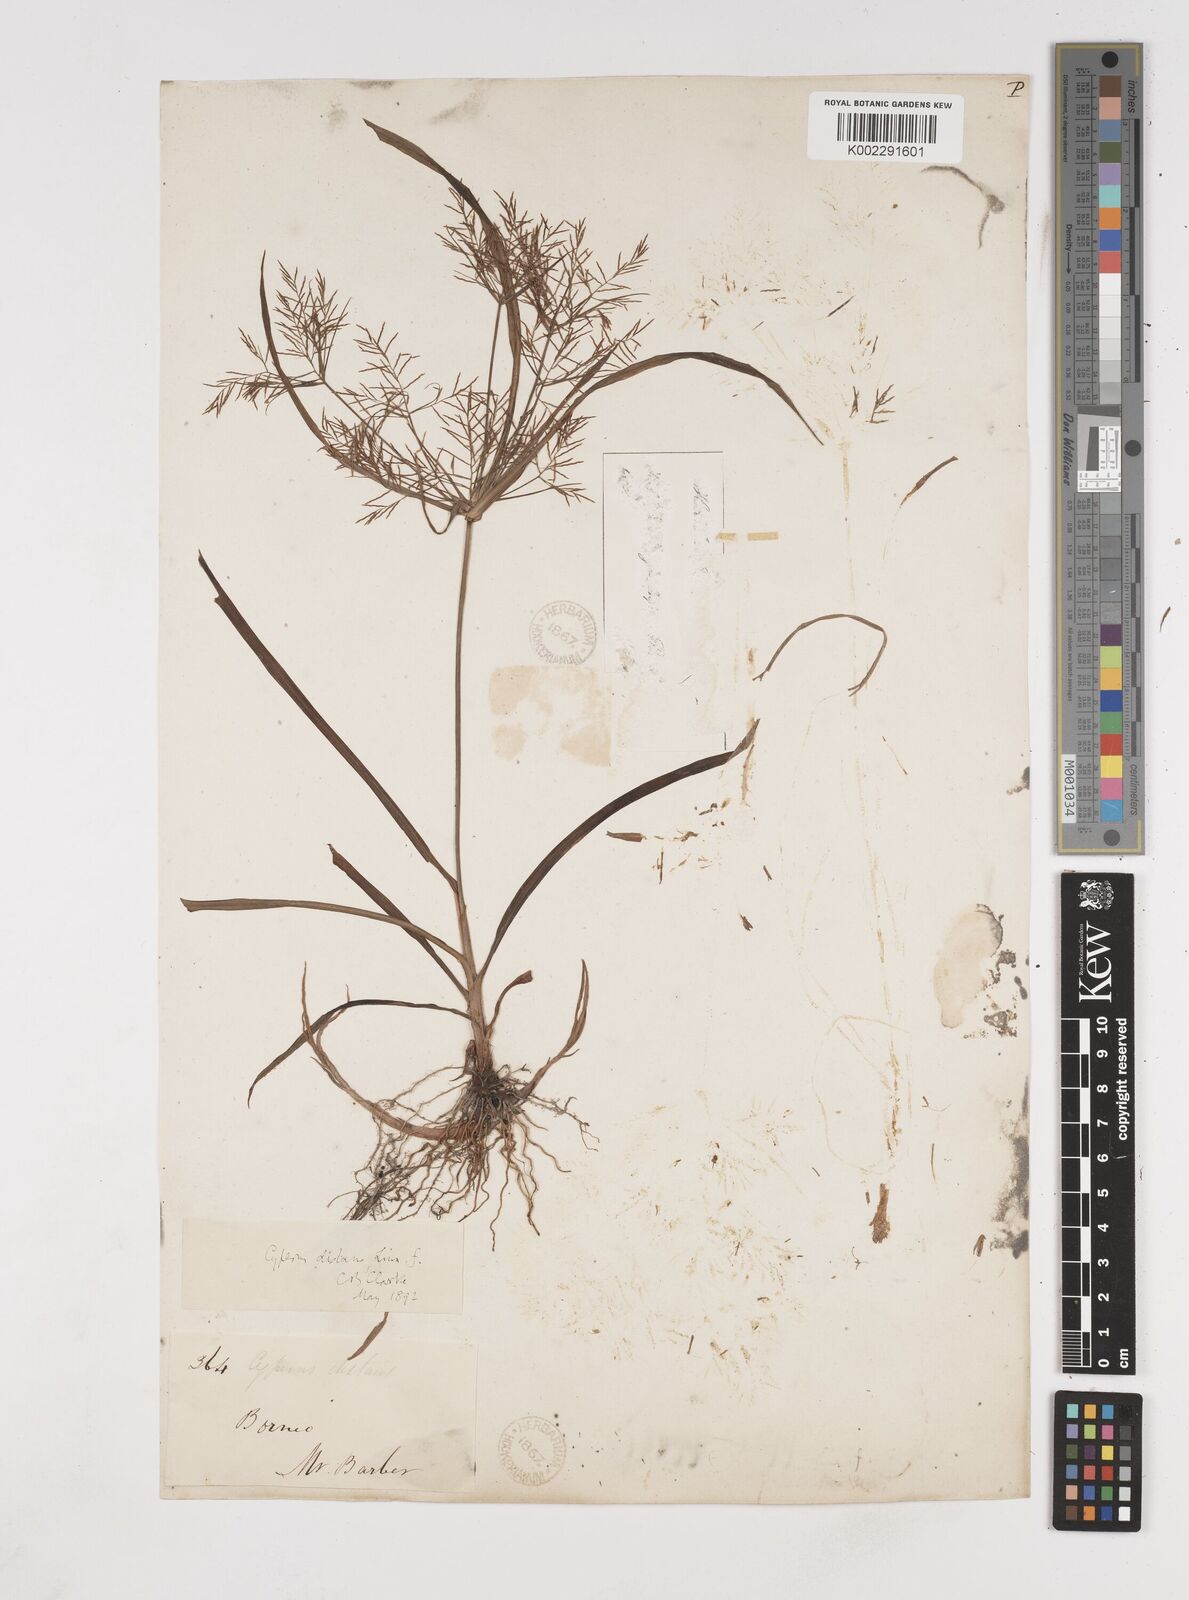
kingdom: Plantae
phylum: Tracheophyta
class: Liliopsida
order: Poales
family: Cyperaceae
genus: Cyperus
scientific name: Cyperus distans
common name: Slender cyperus
